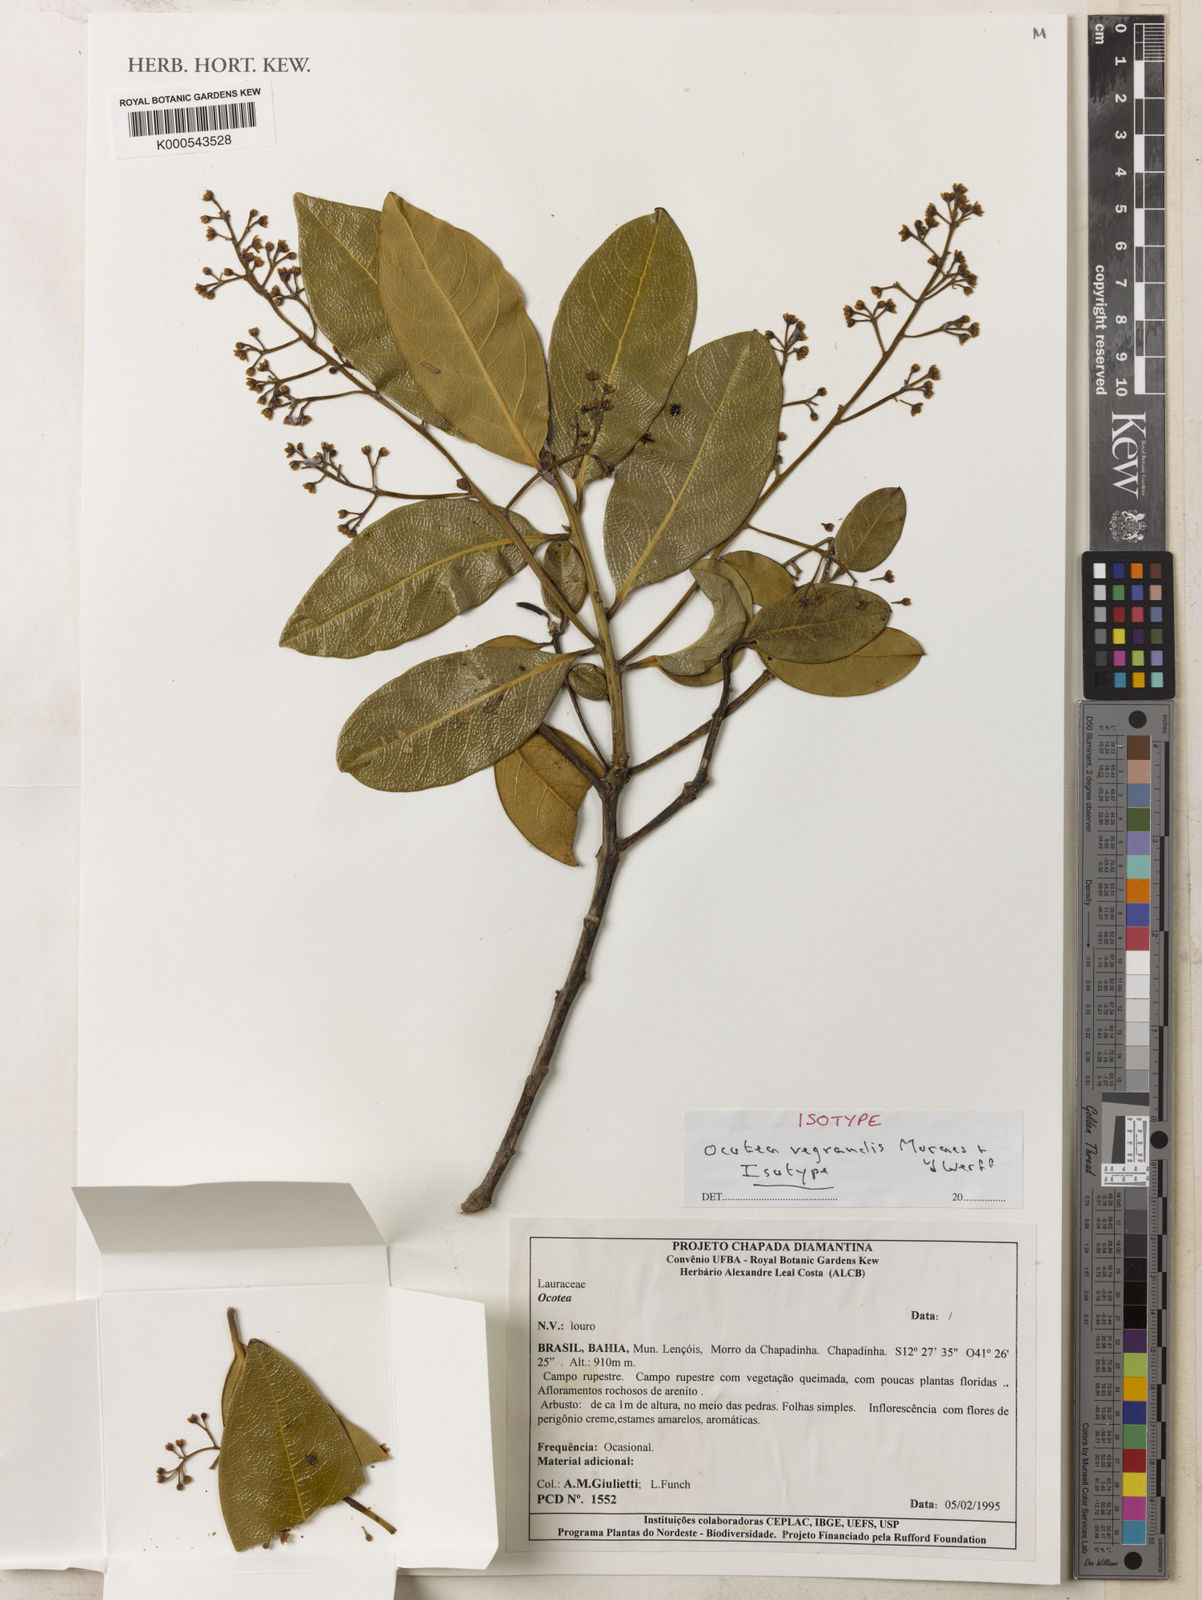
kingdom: Plantae
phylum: Tracheophyta
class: Magnoliopsida
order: Laurales
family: Lauraceae
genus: Ocotea
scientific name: Ocotea vegrandis
